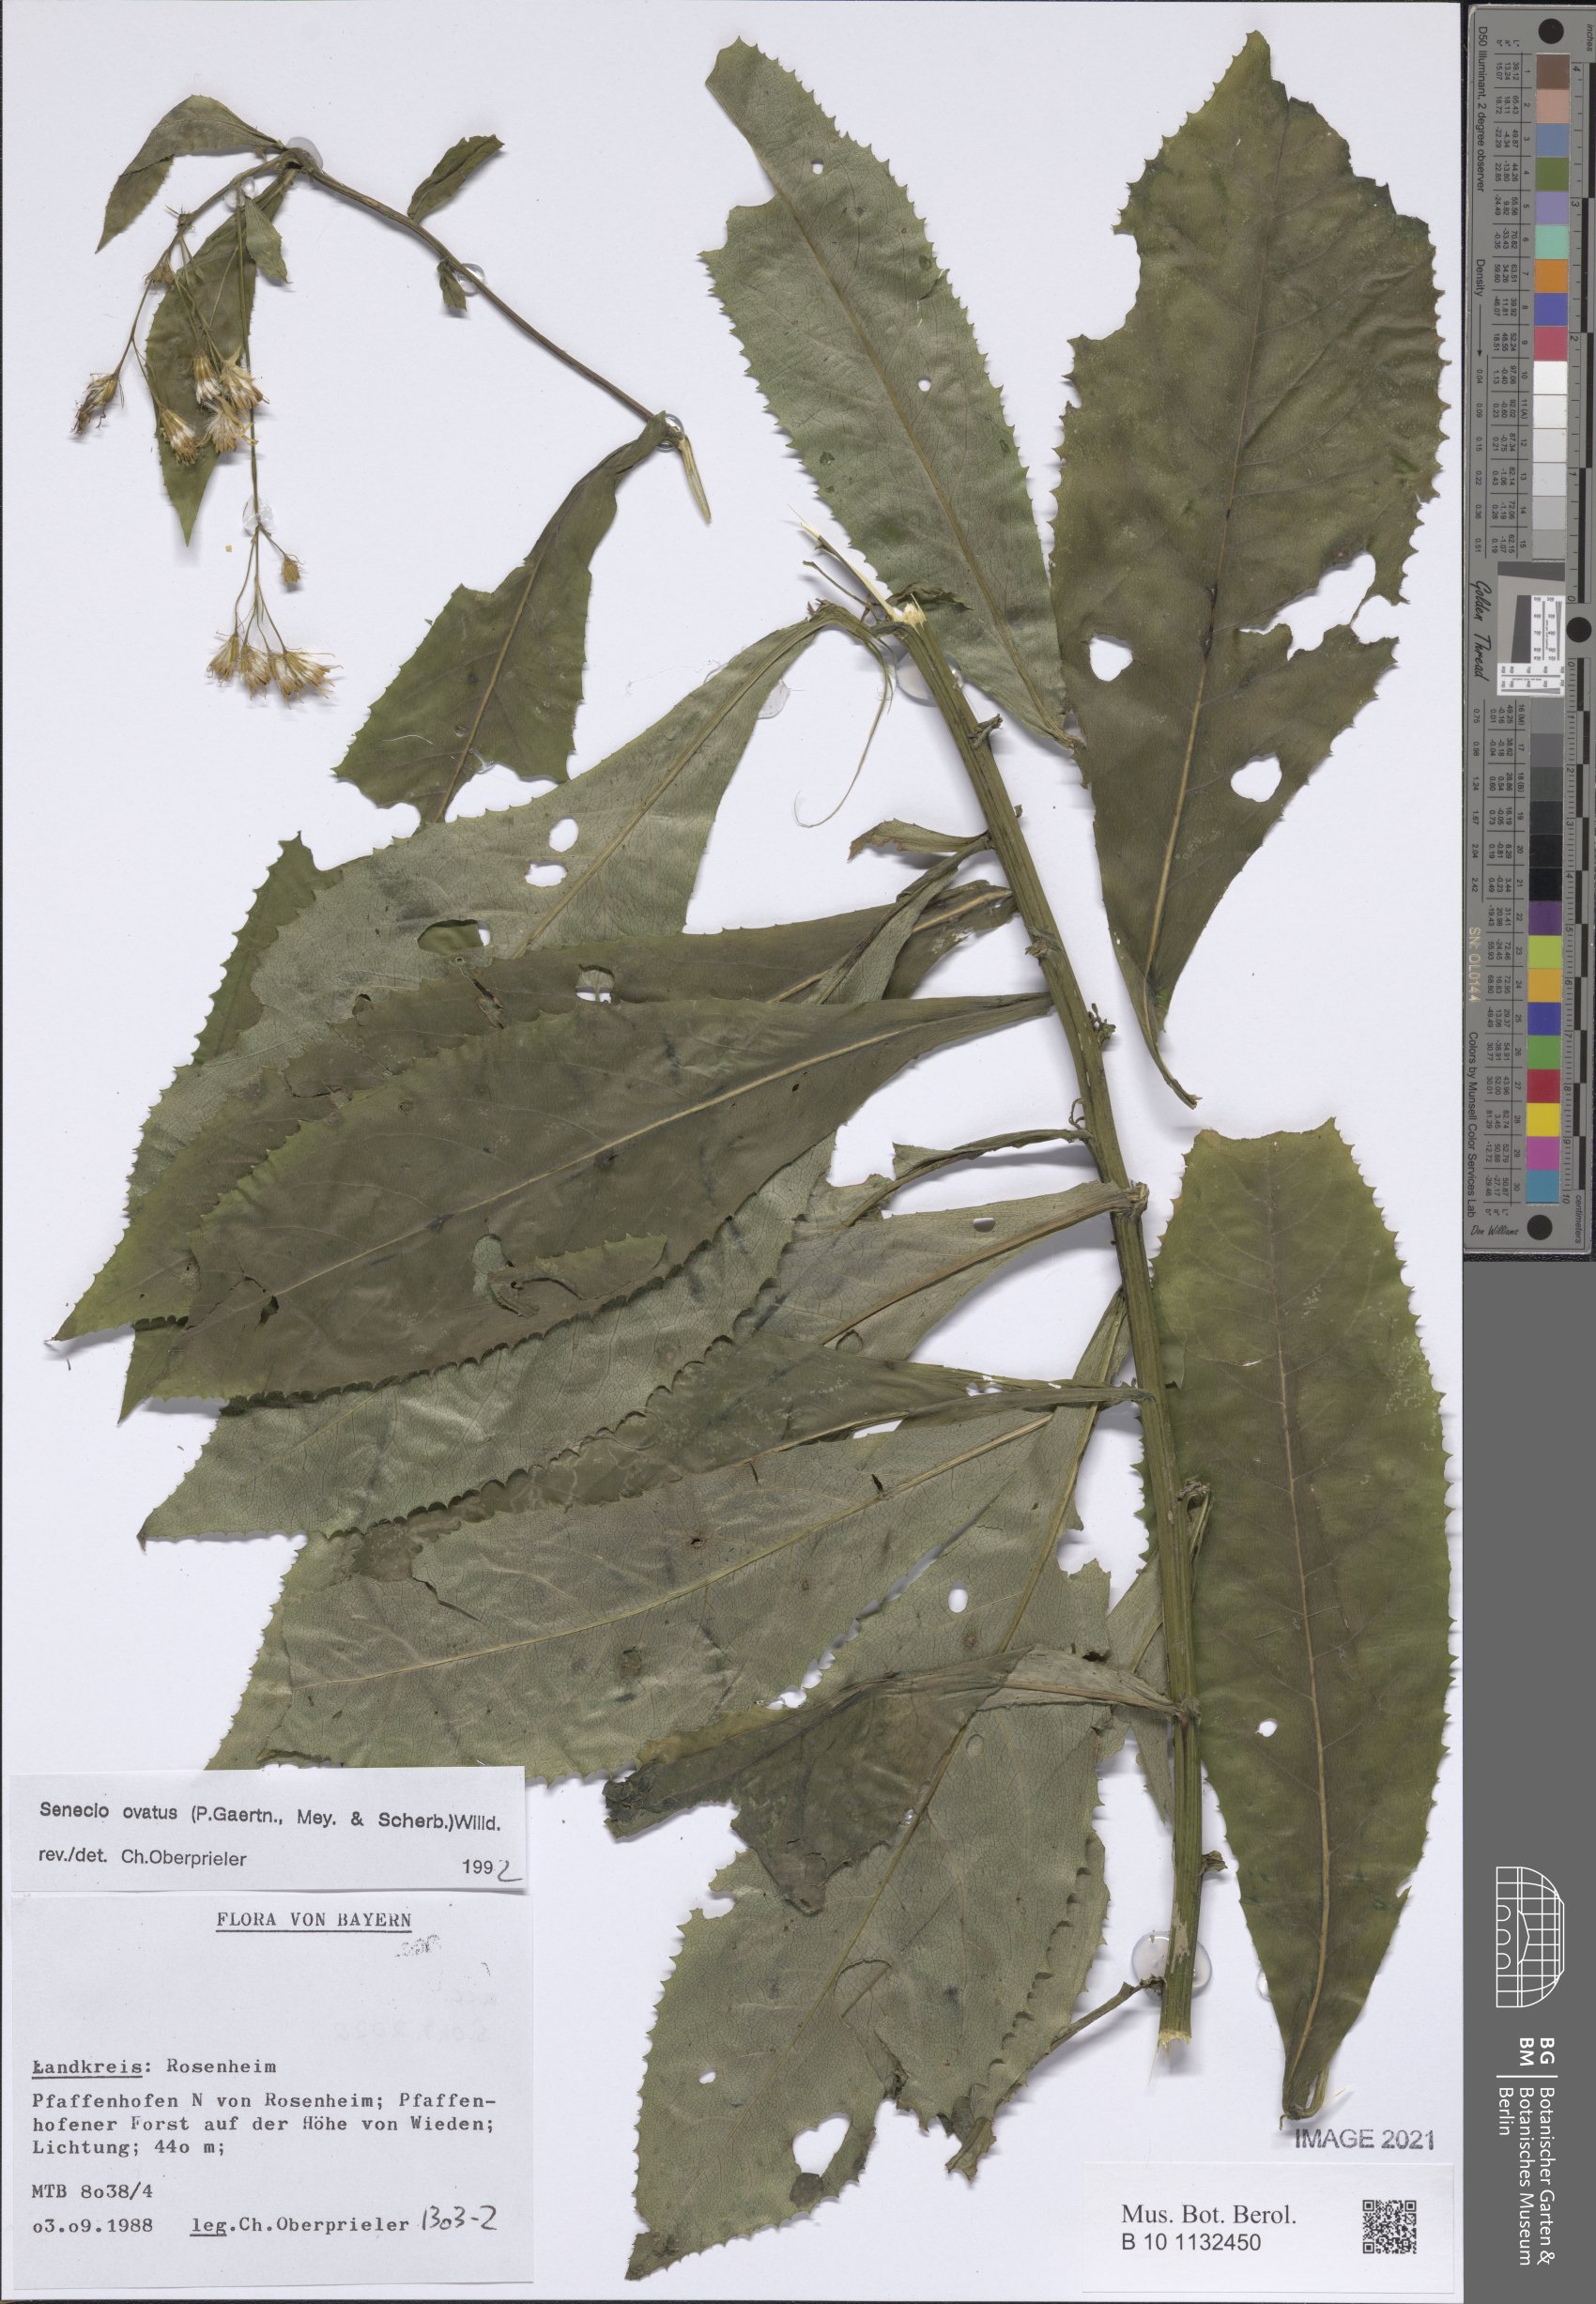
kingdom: Plantae
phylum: Tracheophyta
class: Magnoliopsida
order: Asterales
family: Asteraceae
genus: Senecio
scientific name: Senecio ovatus
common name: Wood ragwort
